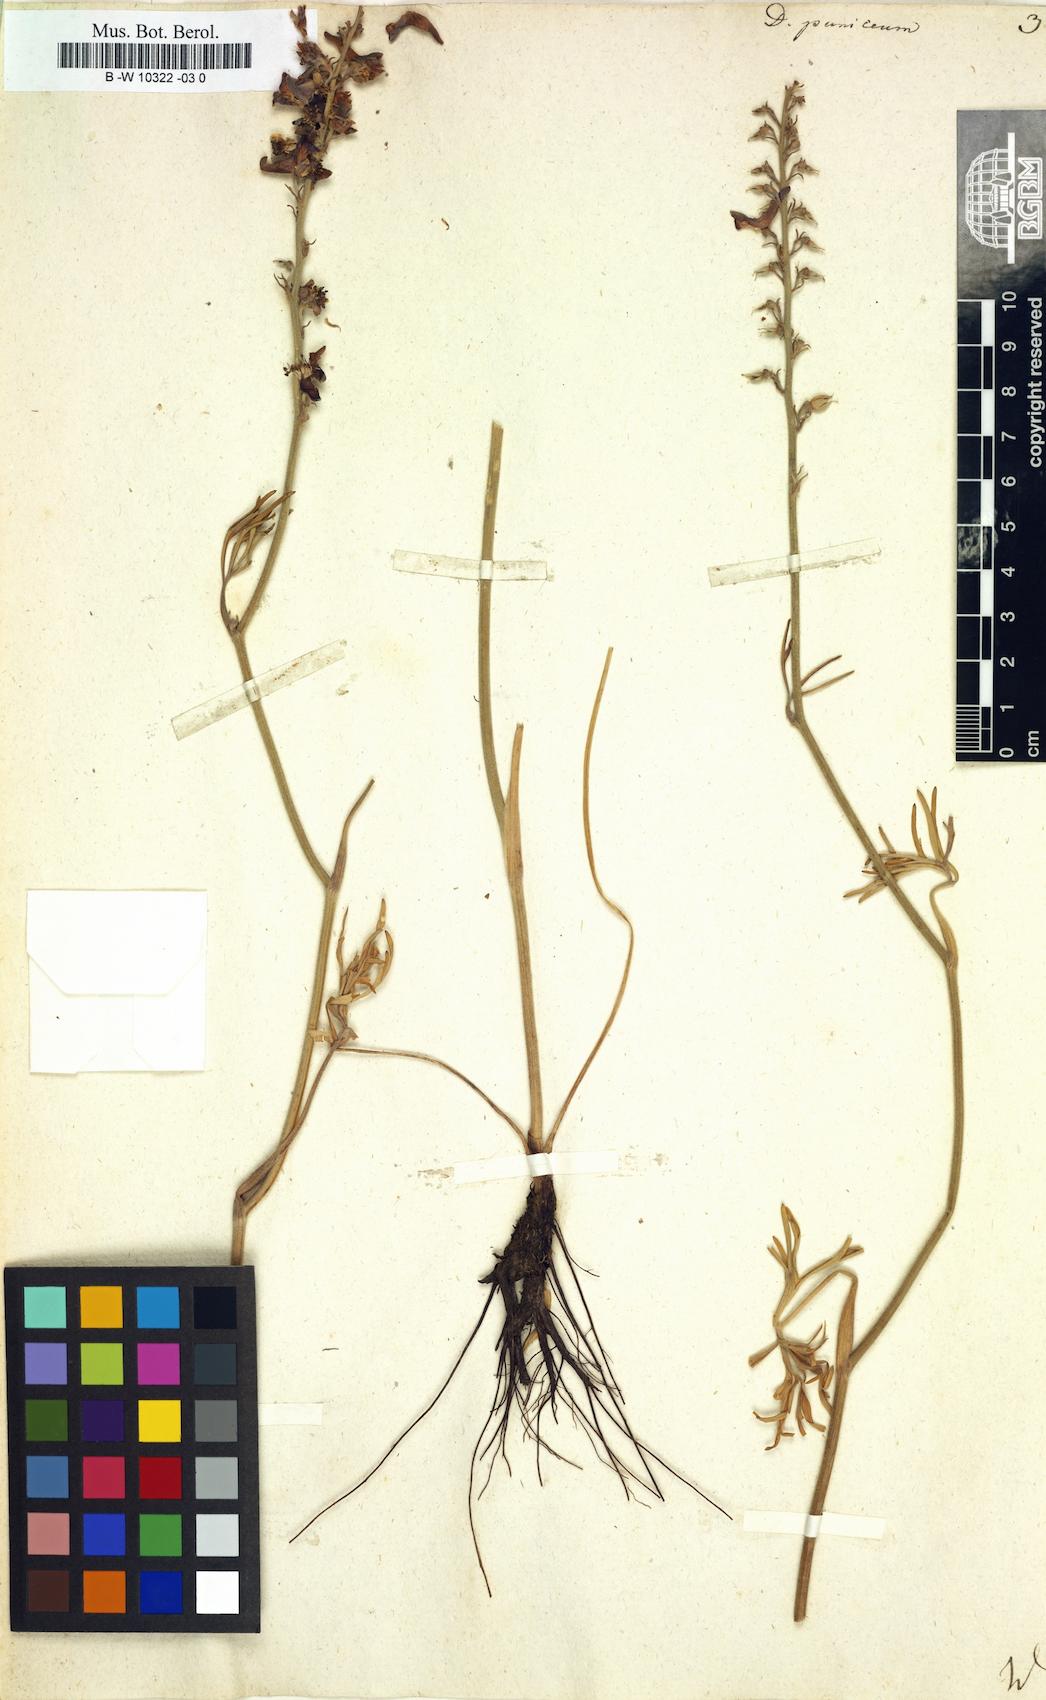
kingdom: Plantae
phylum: Tracheophyta
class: Magnoliopsida
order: Ranunculales
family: Ranunculaceae
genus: Delphinium
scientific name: Delphinium puniceum
